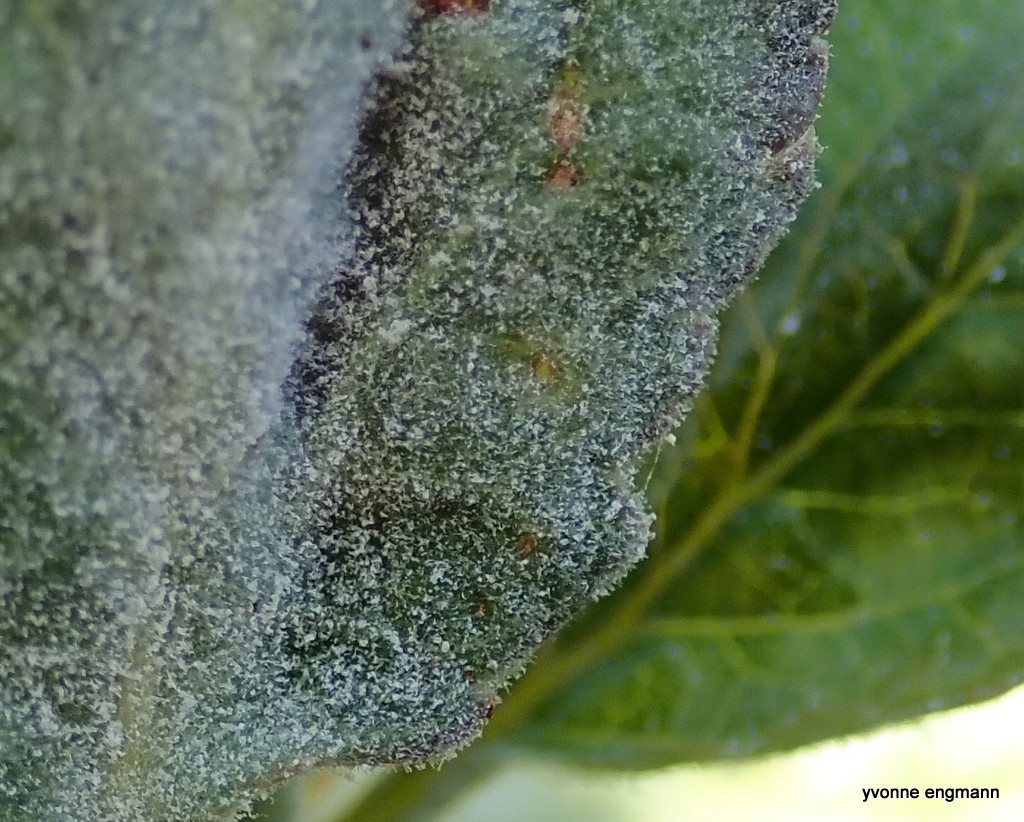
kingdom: Fungi
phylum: Ascomycota
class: Leotiomycetes
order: Helotiales
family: Erysiphaceae
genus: Podosphaera
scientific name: Podosphaera leucotricha
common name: æble-meldug
